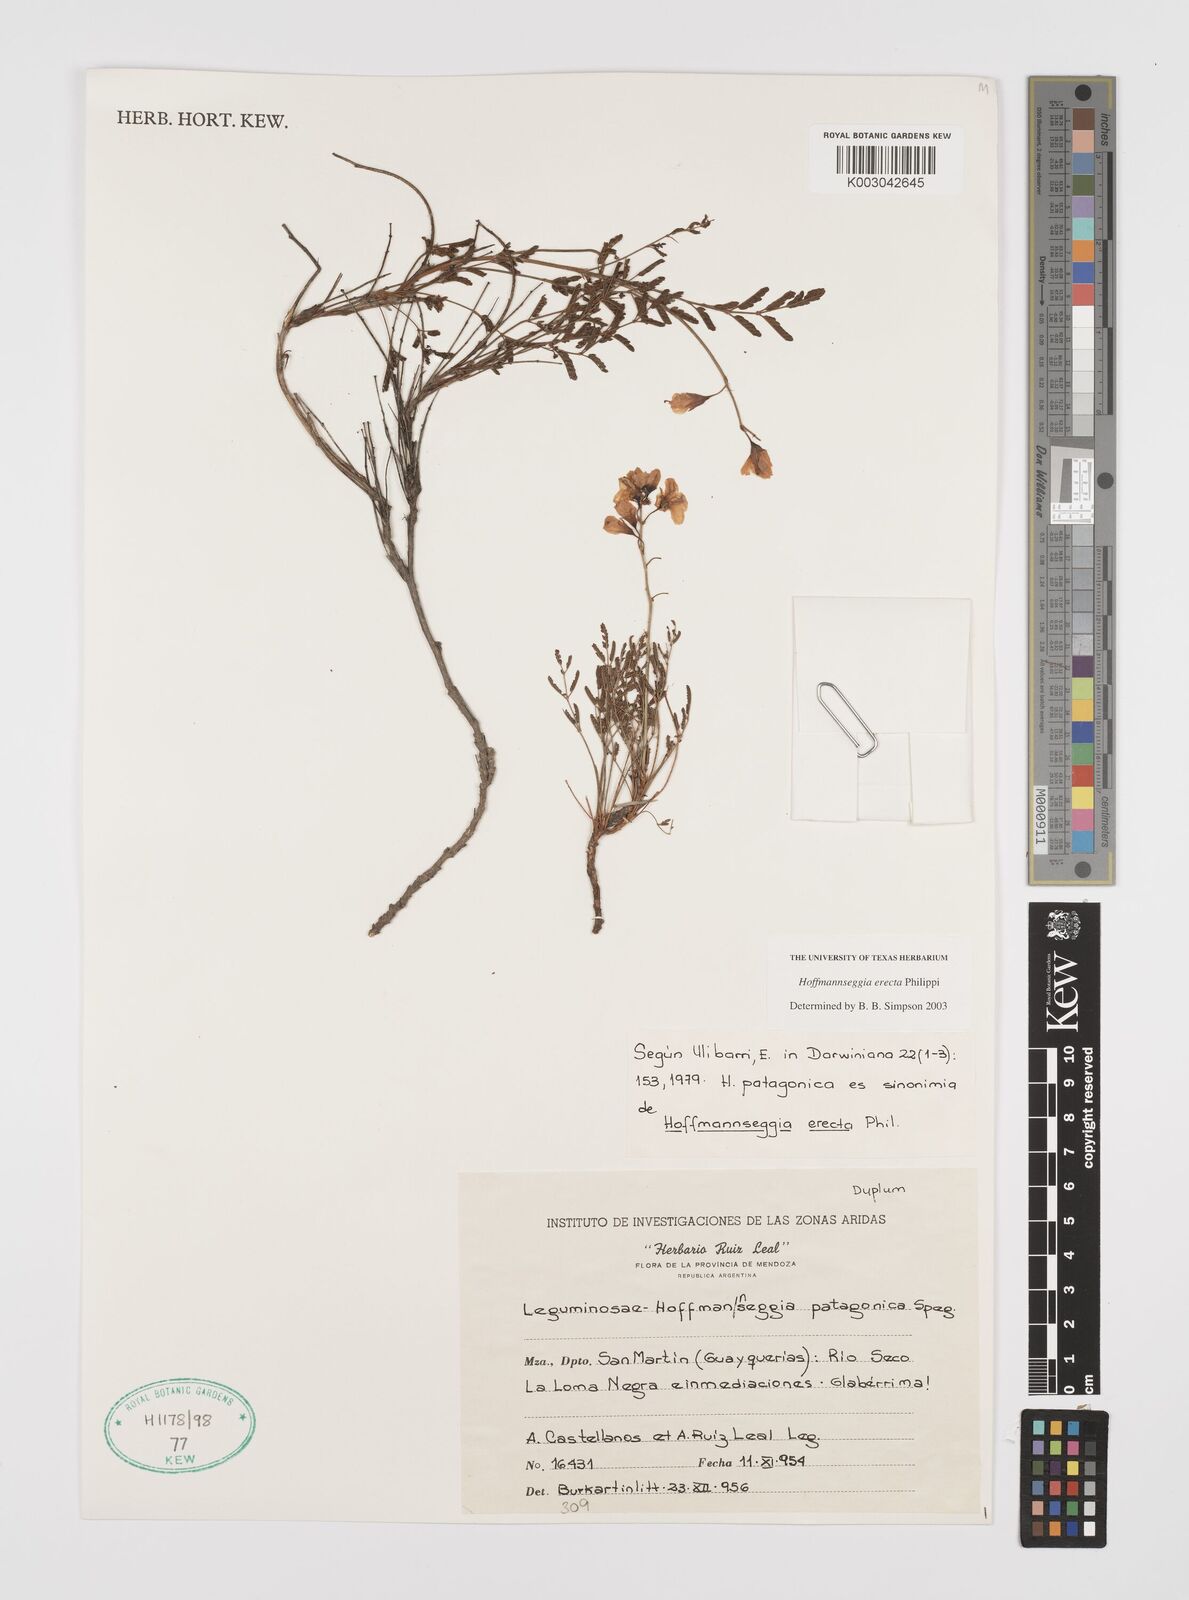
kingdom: Plantae
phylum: Tracheophyta
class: Magnoliopsida
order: Fabales
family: Fabaceae
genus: Hoffmannseggia
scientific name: Hoffmannseggia erecta
